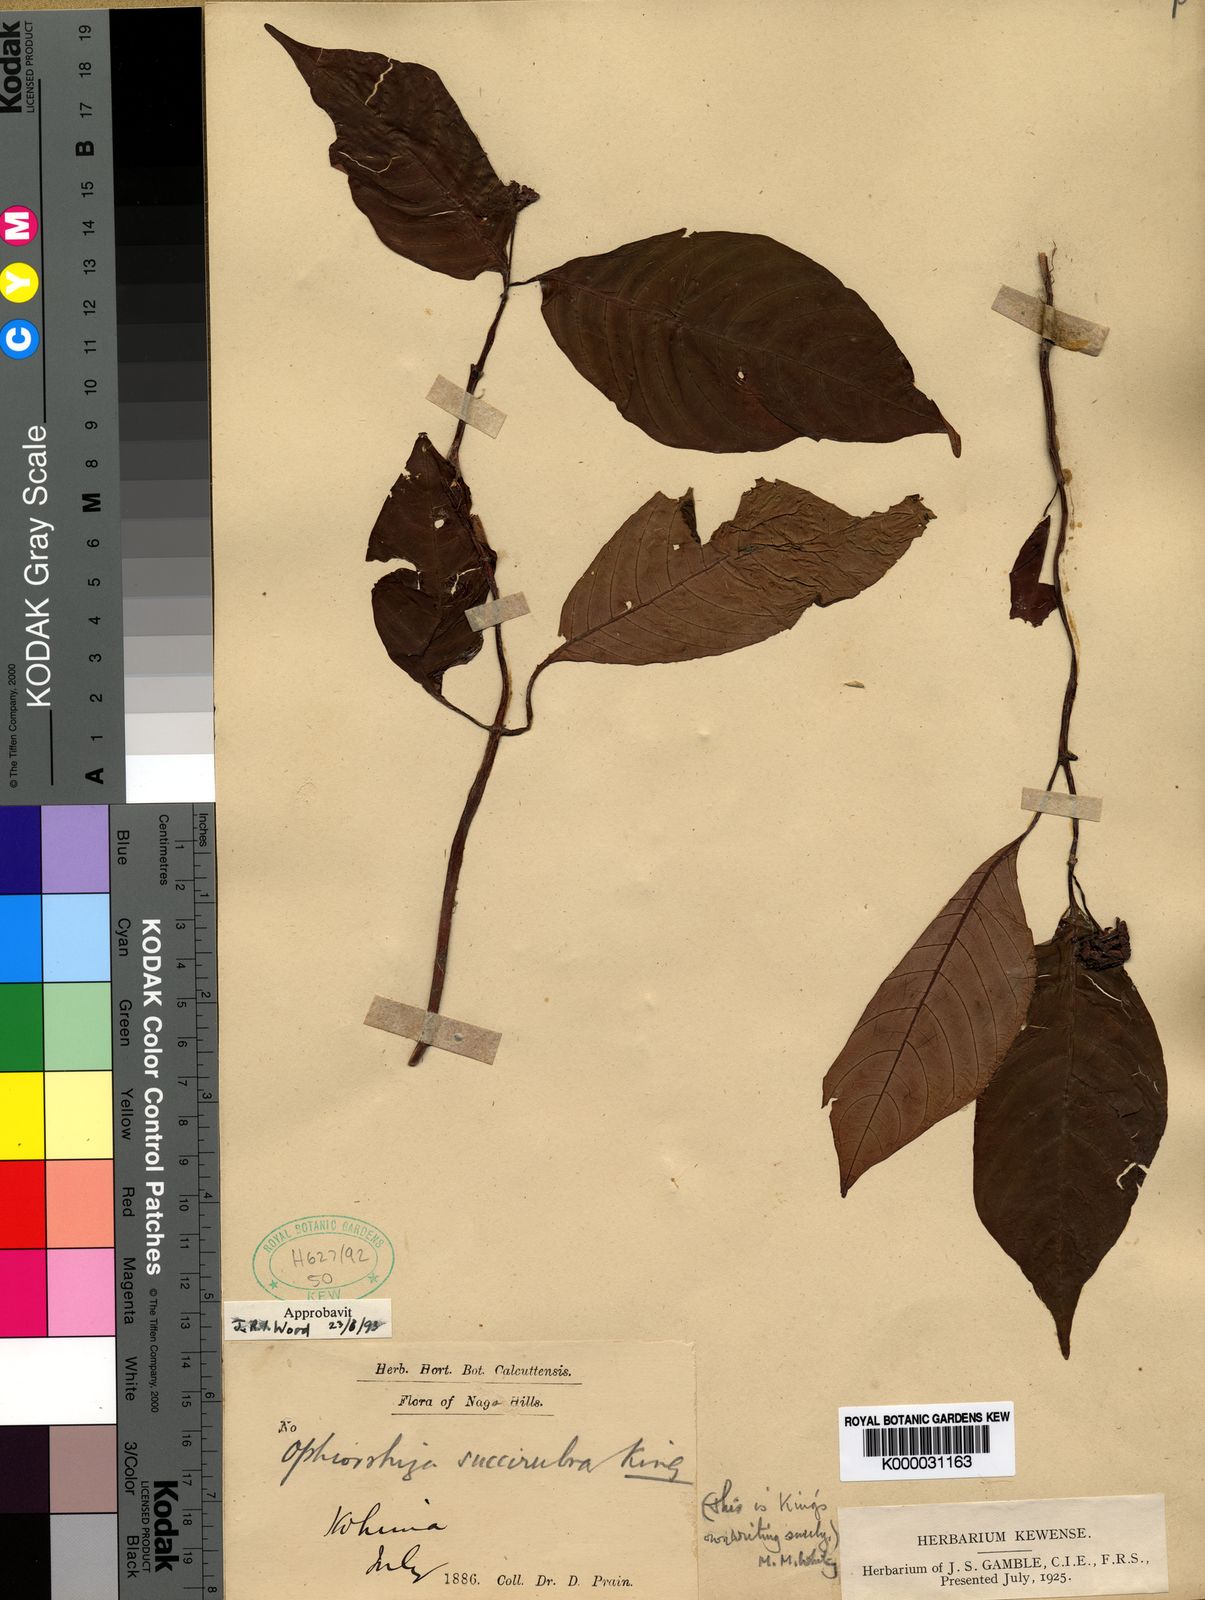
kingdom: Plantae
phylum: Tracheophyta
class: Magnoliopsida
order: Gentianales
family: Rubiaceae
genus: Ophiorrhiza
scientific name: Ophiorrhiza
